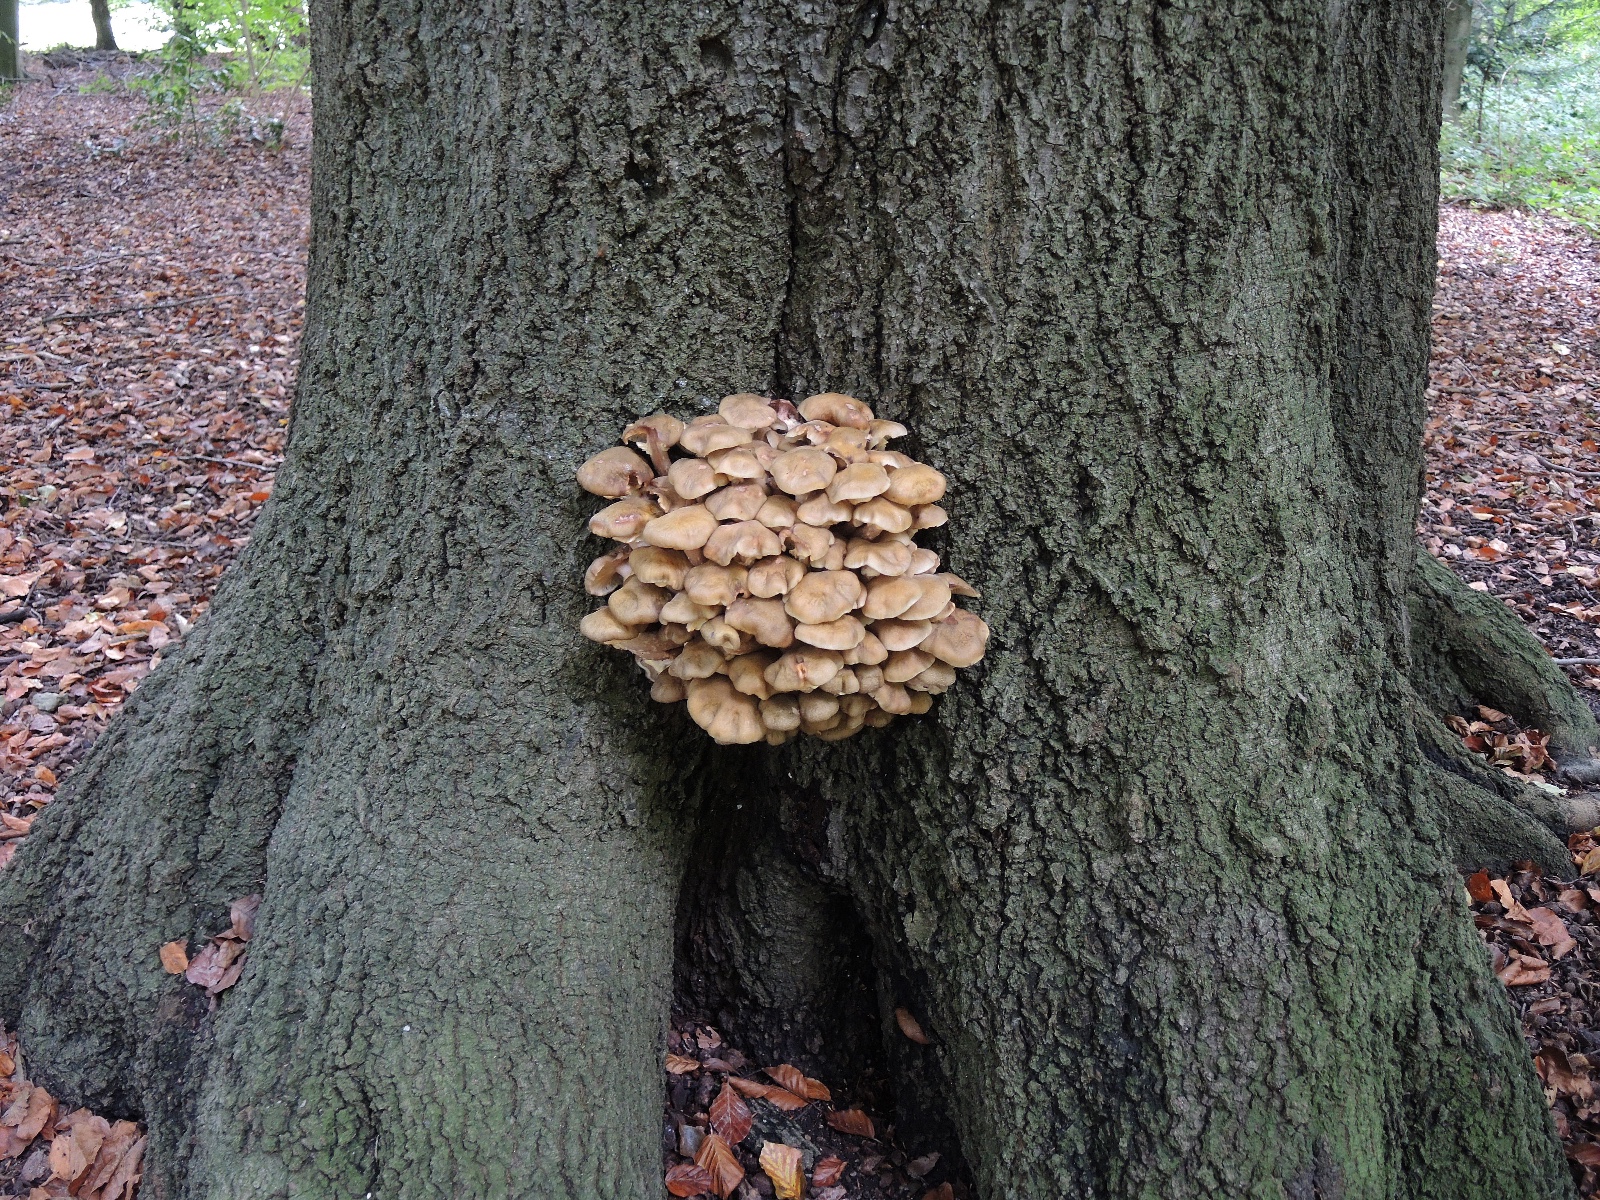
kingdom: Fungi
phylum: Basidiomycota
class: Agaricomycetes
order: Agaricales
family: Physalacriaceae
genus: Armillaria
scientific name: Armillaria mellea
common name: ægte honningsvamp
